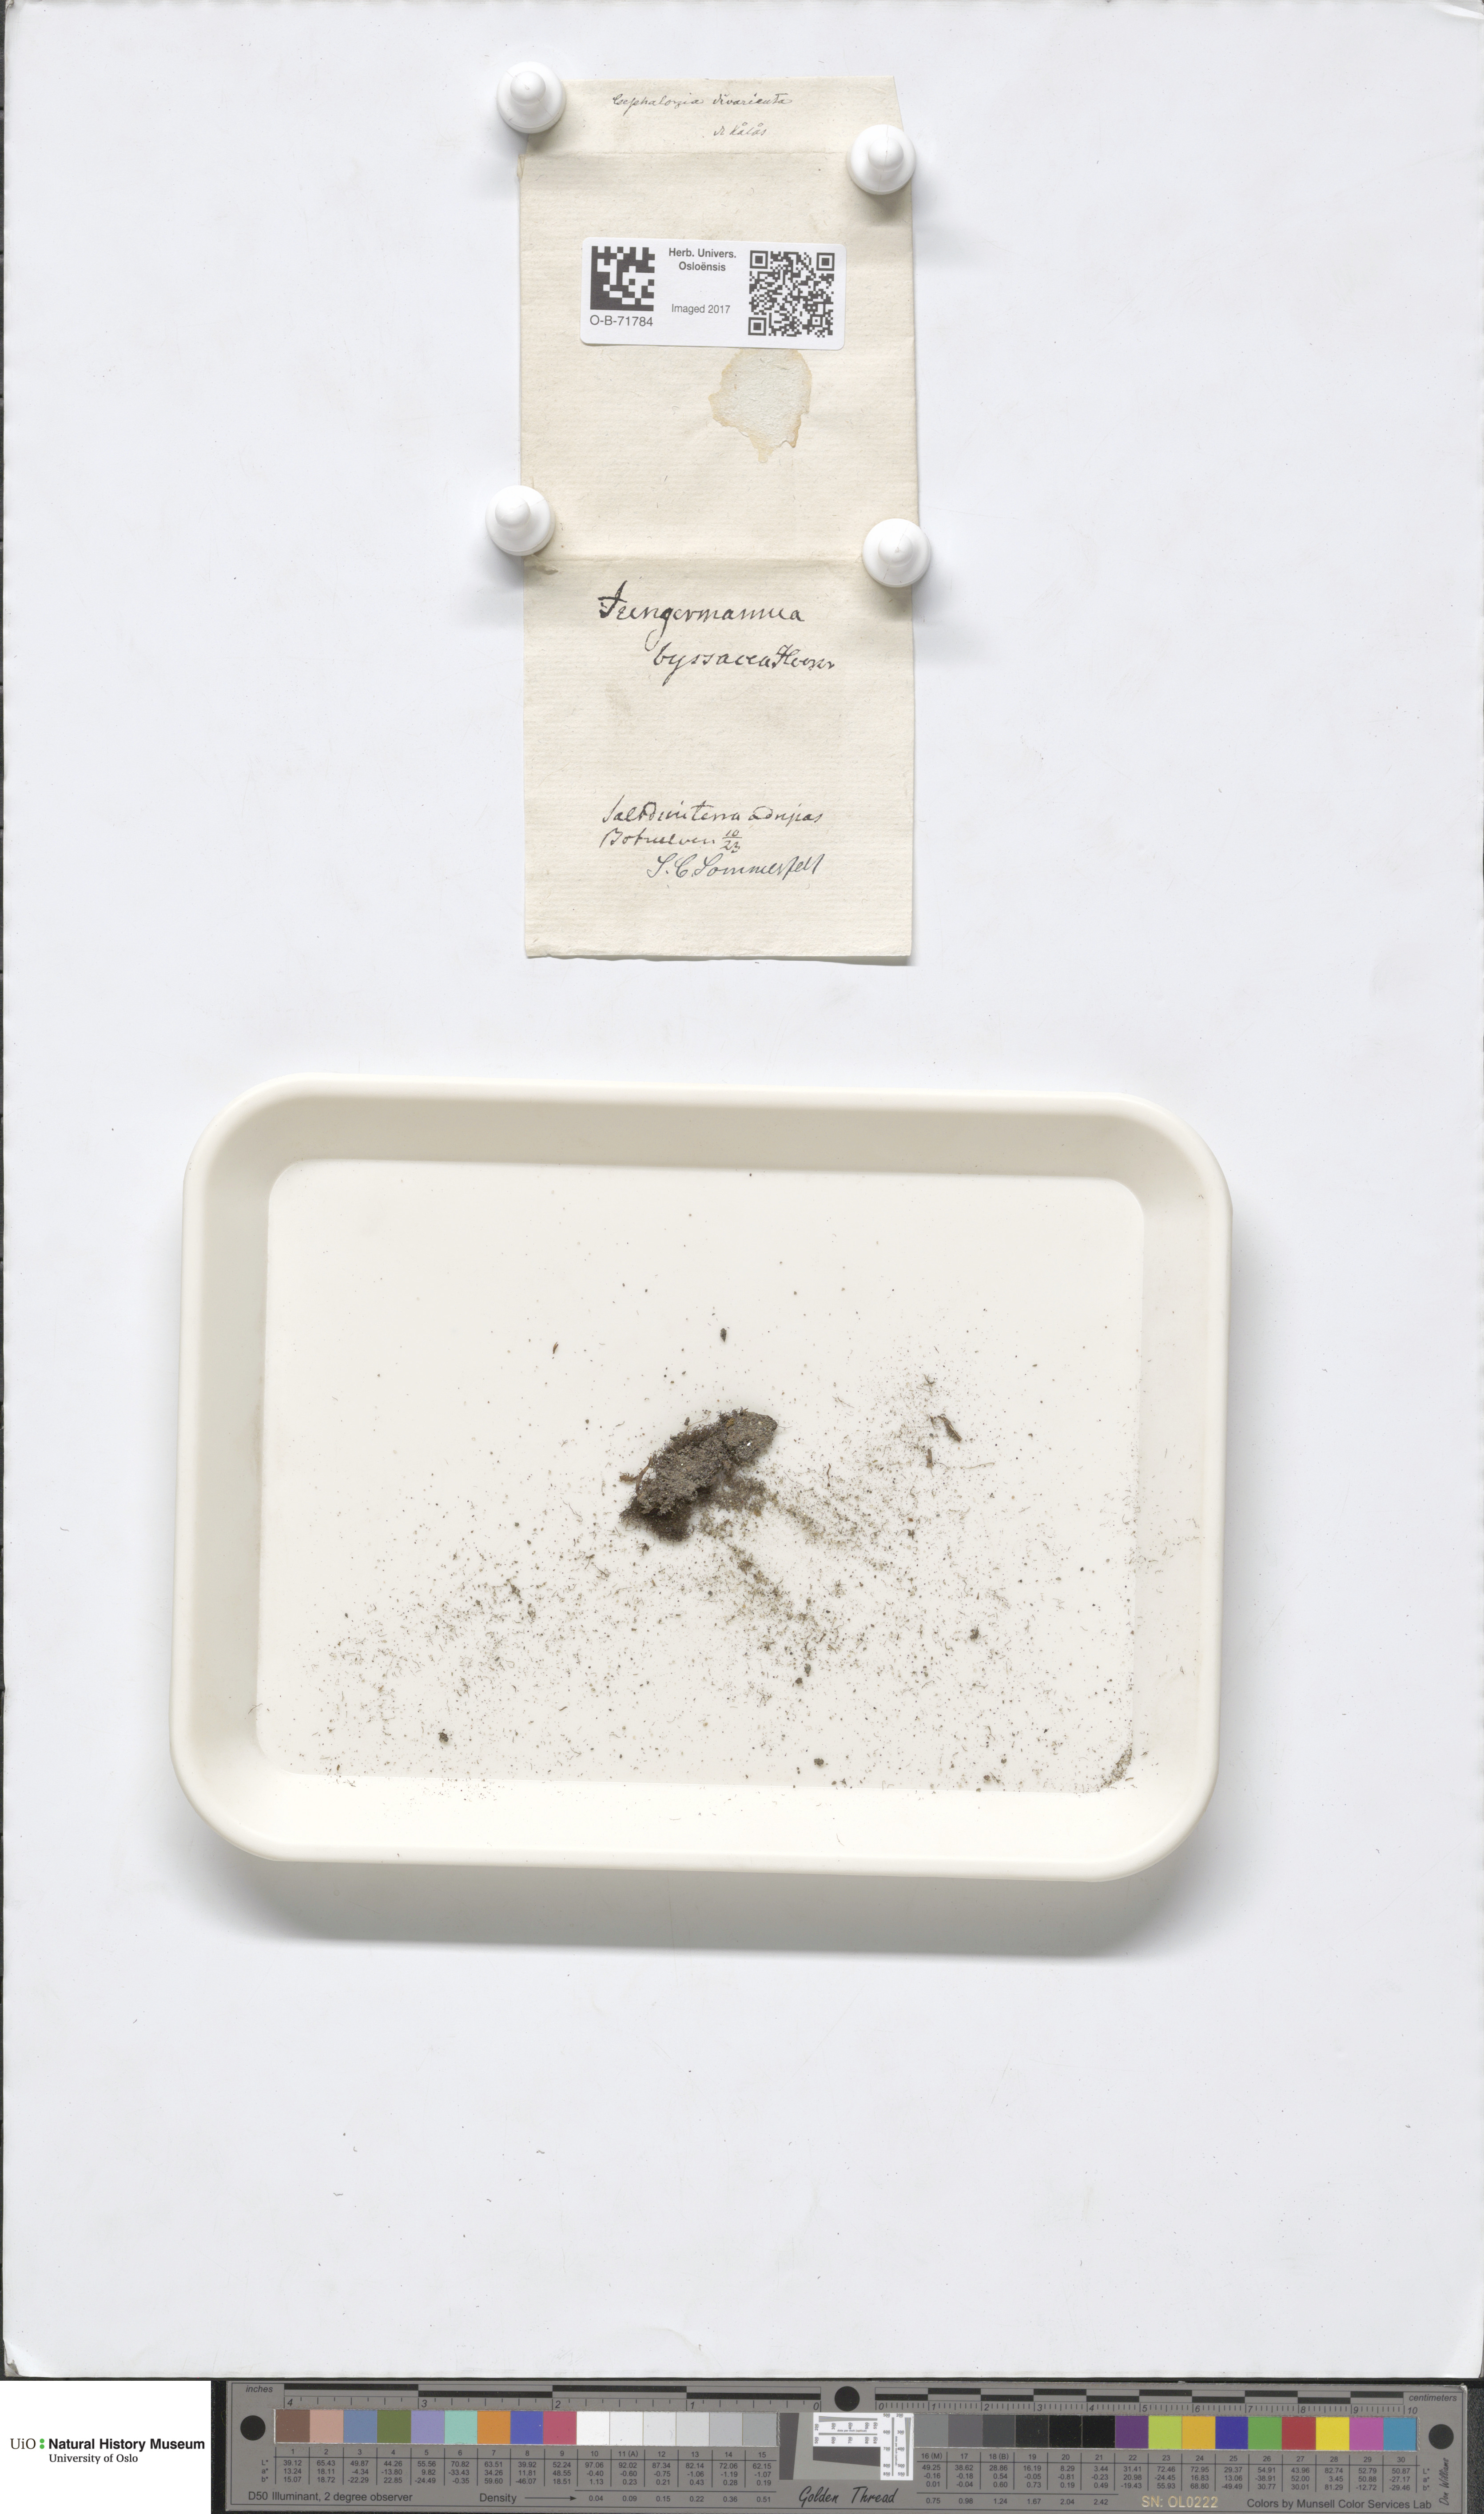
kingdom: Plantae
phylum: Marchantiophyta
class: Jungermanniopsida
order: Jungermanniales
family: Cephaloziellaceae
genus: Cephaloziella
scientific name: Cephaloziella varians
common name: Arctic threadwort
